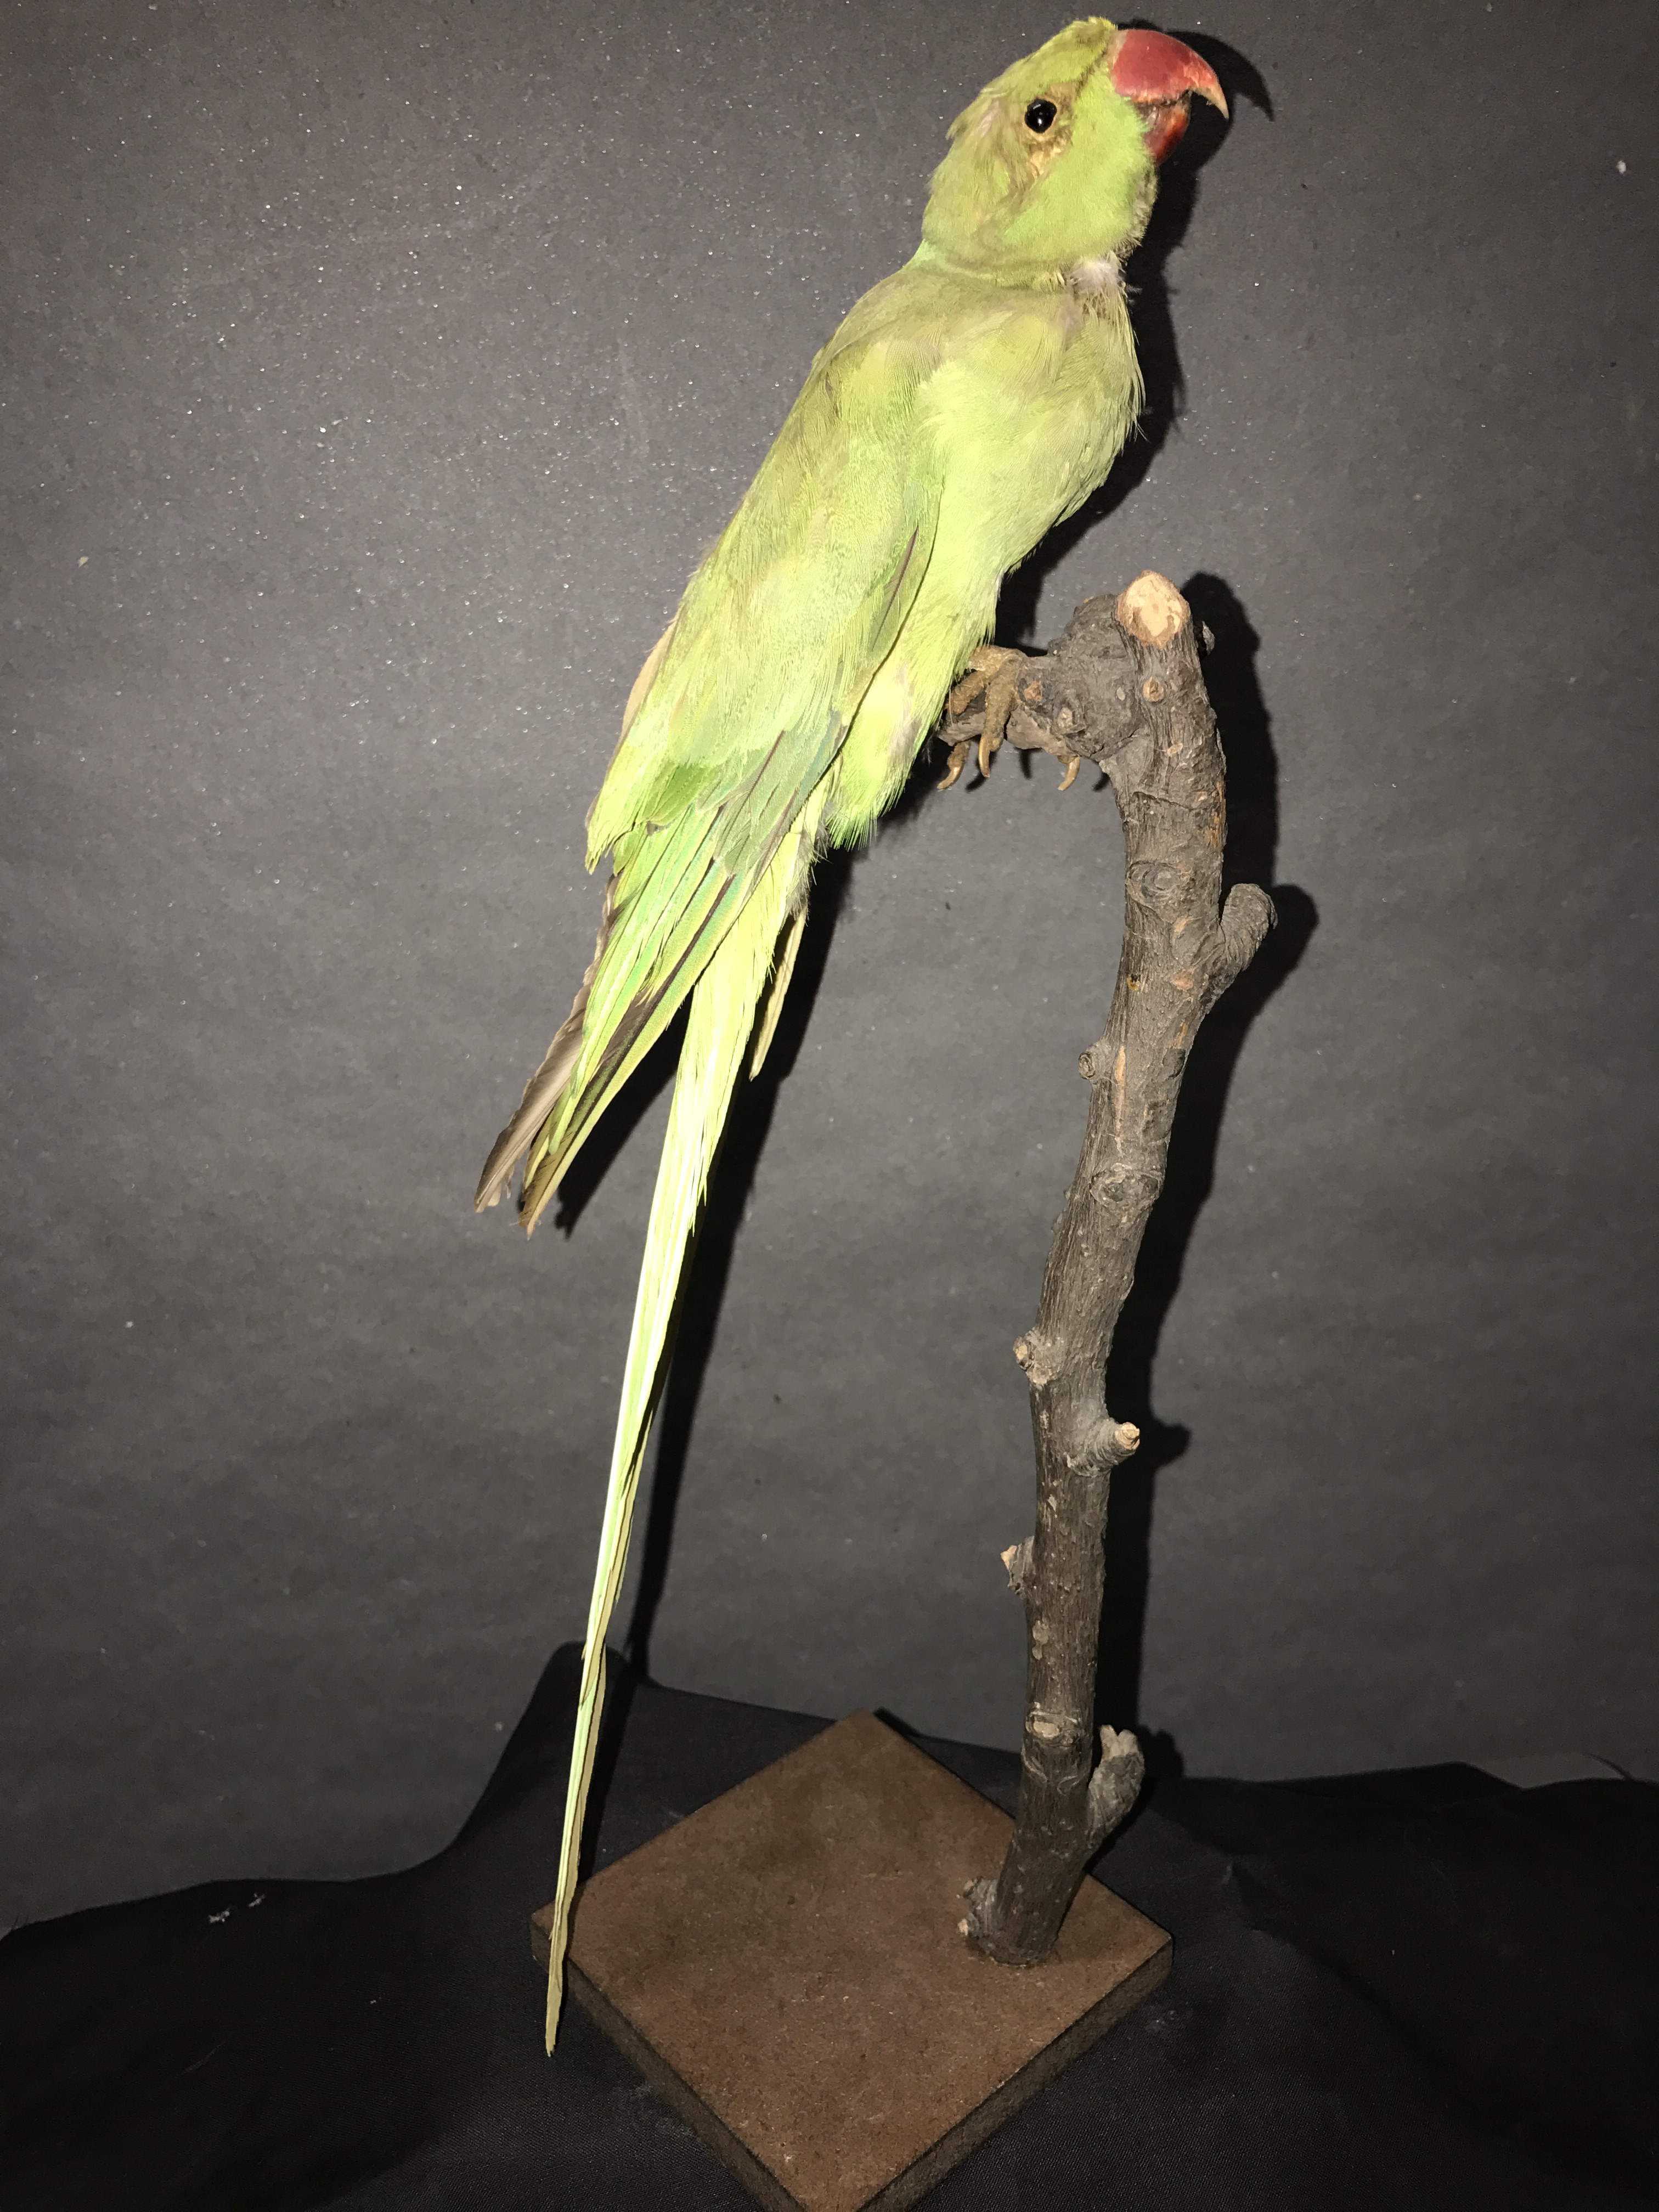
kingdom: Animalia
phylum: Chordata
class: Aves
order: Psittaciformes
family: Psittacidae
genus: Psittacula
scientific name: Psittacula krameri
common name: Rose-ringed parakeet
